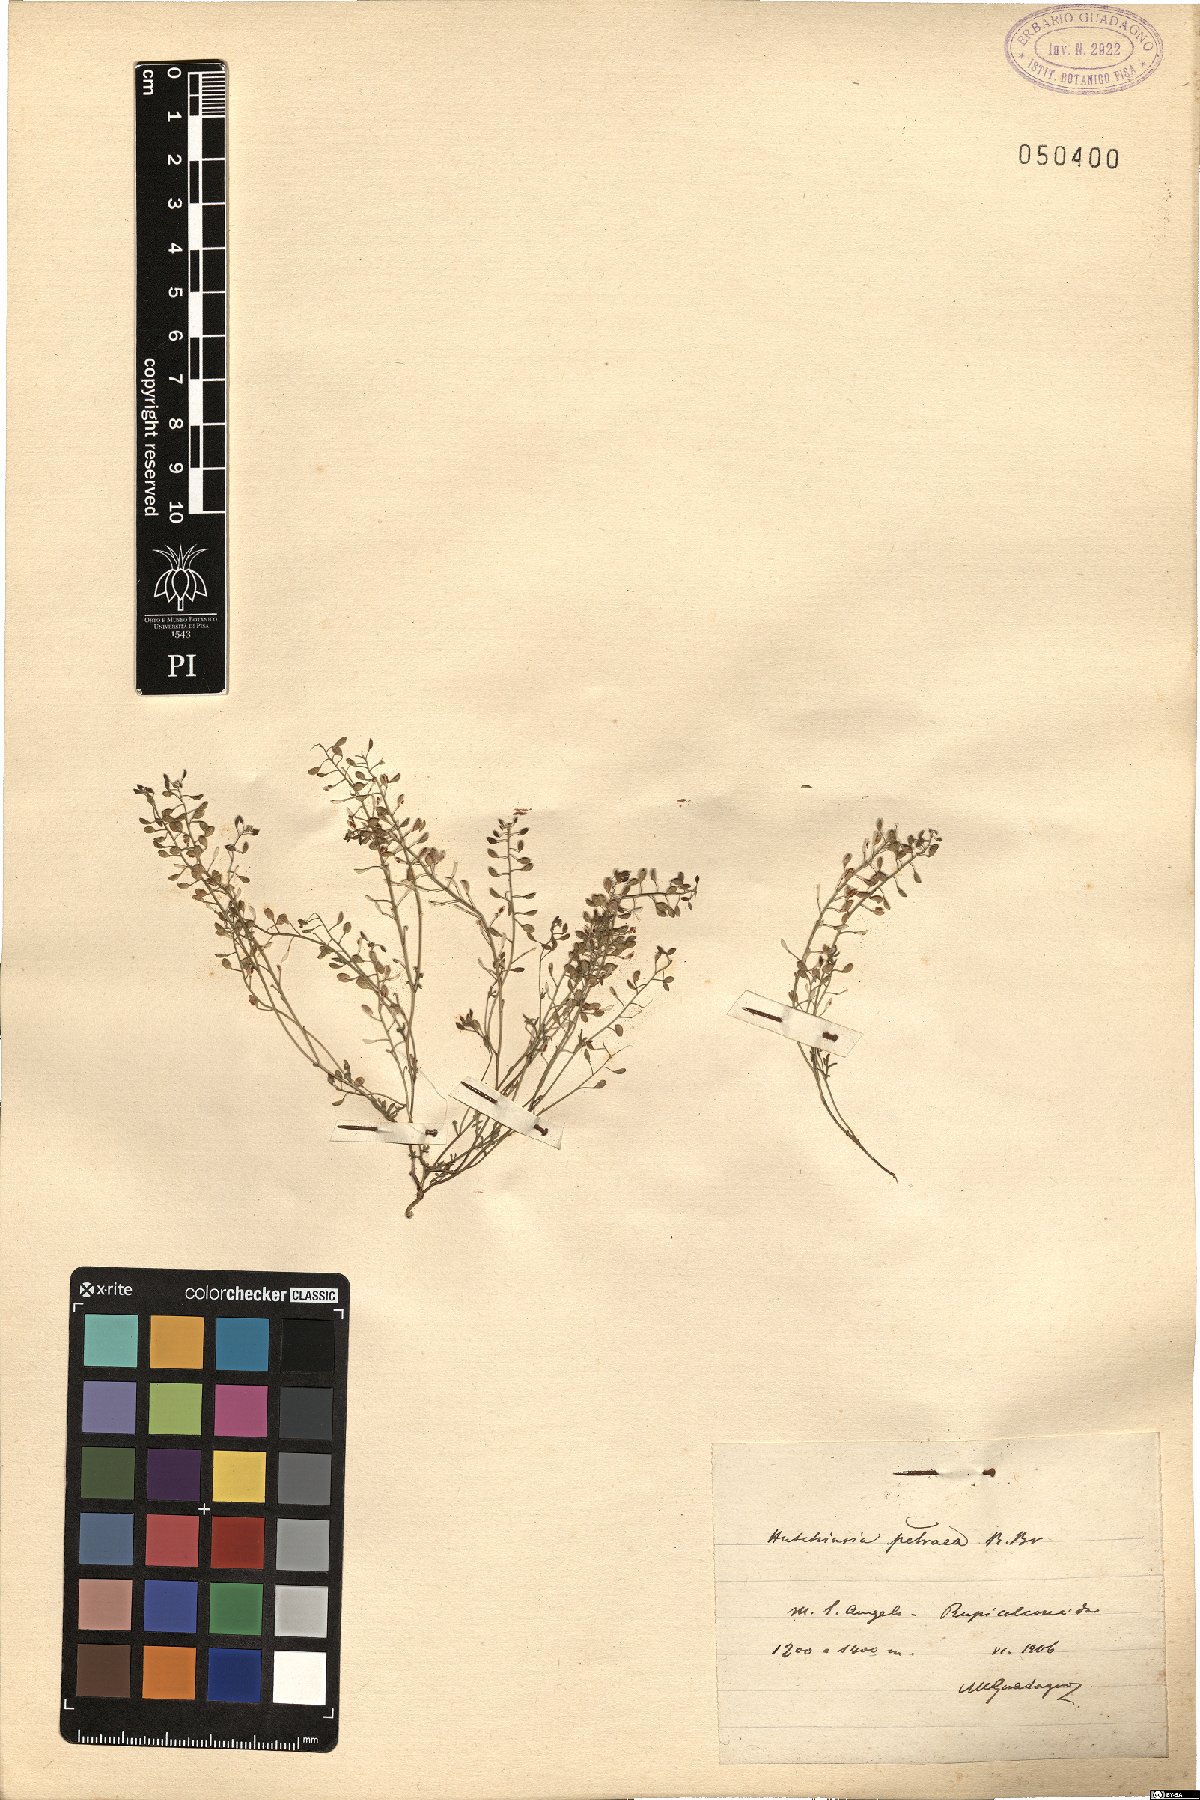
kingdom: Plantae
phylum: Tracheophyta
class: Magnoliopsida
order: Brassicales
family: Brassicaceae
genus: Hornungia
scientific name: Hornungia petraea
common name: Hutchinsia
